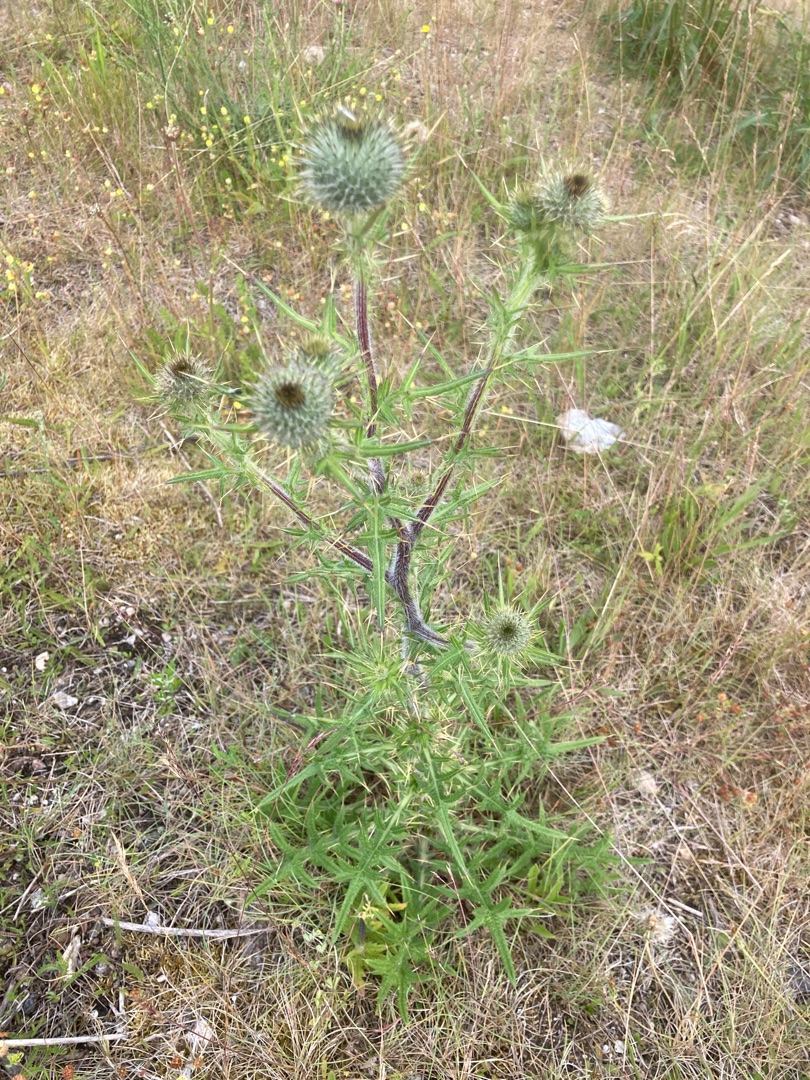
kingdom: Plantae
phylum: Tracheophyta
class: Magnoliopsida
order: Asterales
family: Asteraceae
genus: Cirsium
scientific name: Cirsium vulgare
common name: Horse-tidsel
